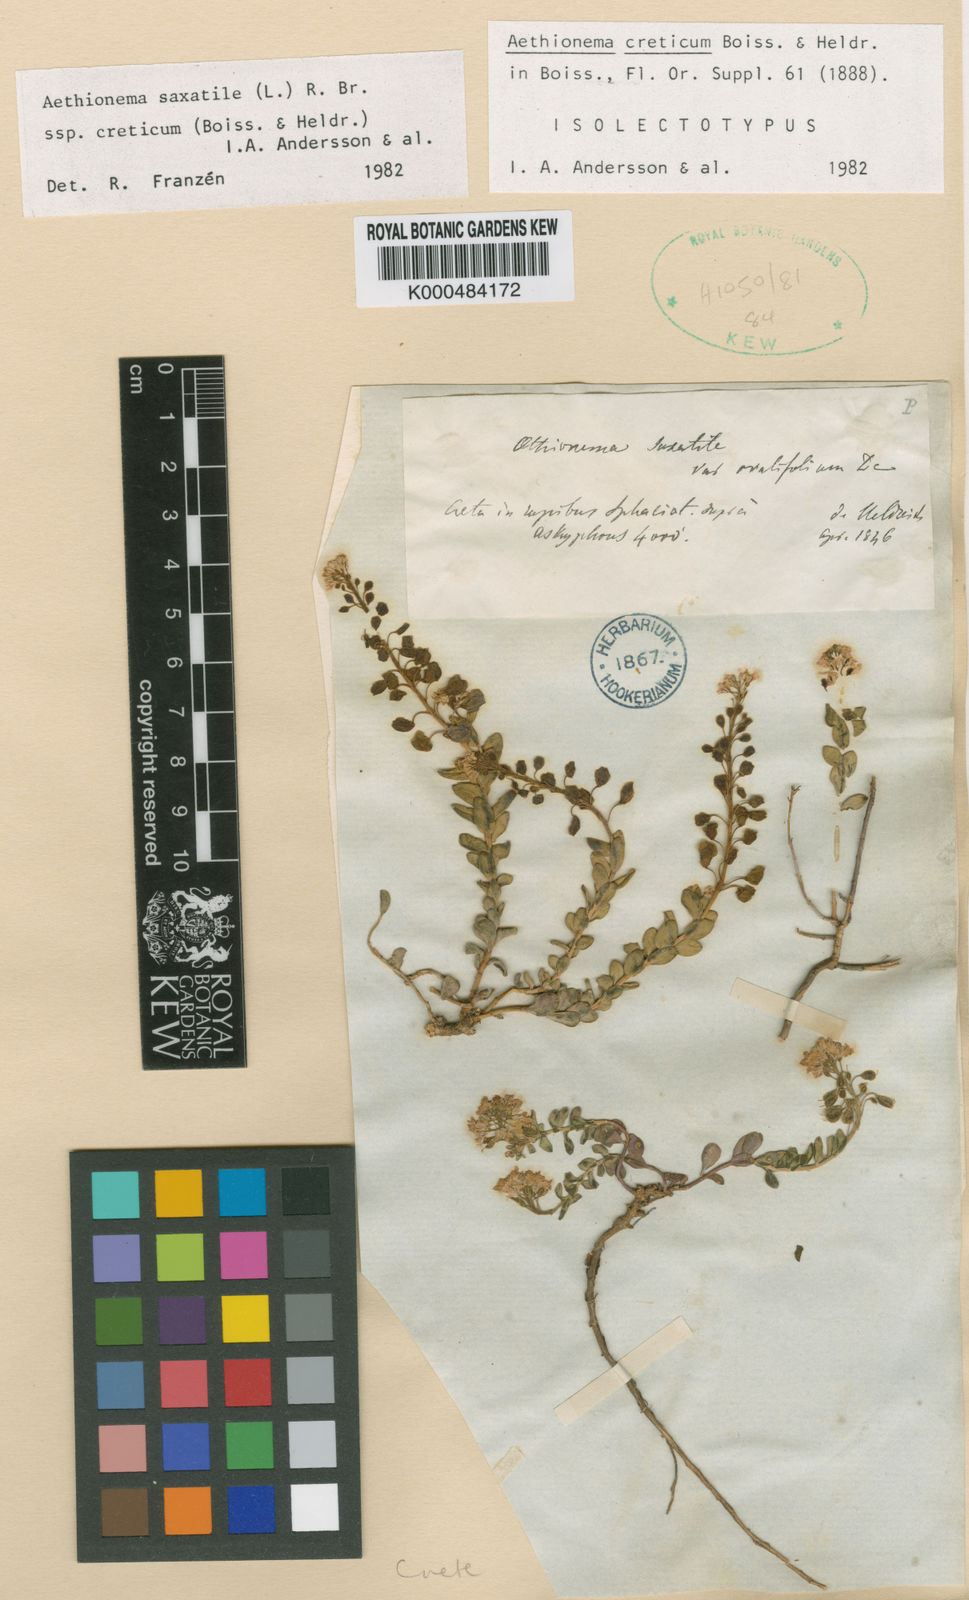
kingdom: Plantae
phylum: Tracheophyta
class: Magnoliopsida
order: Brassicales
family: Brassicaceae
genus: Aethionema
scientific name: Aethionema
